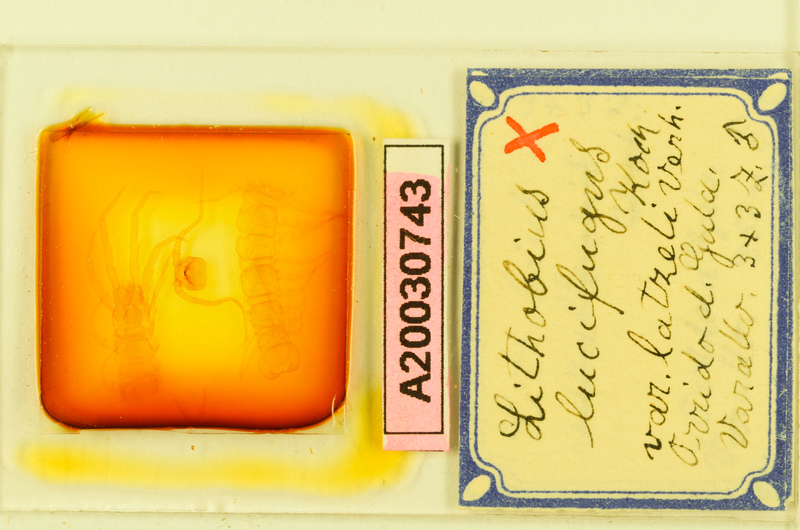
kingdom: Animalia
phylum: Arthropoda
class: Chilopoda
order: Lithobiomorpha
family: Lithobiidae
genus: Lithobius
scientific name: Lithobius lucifugus
